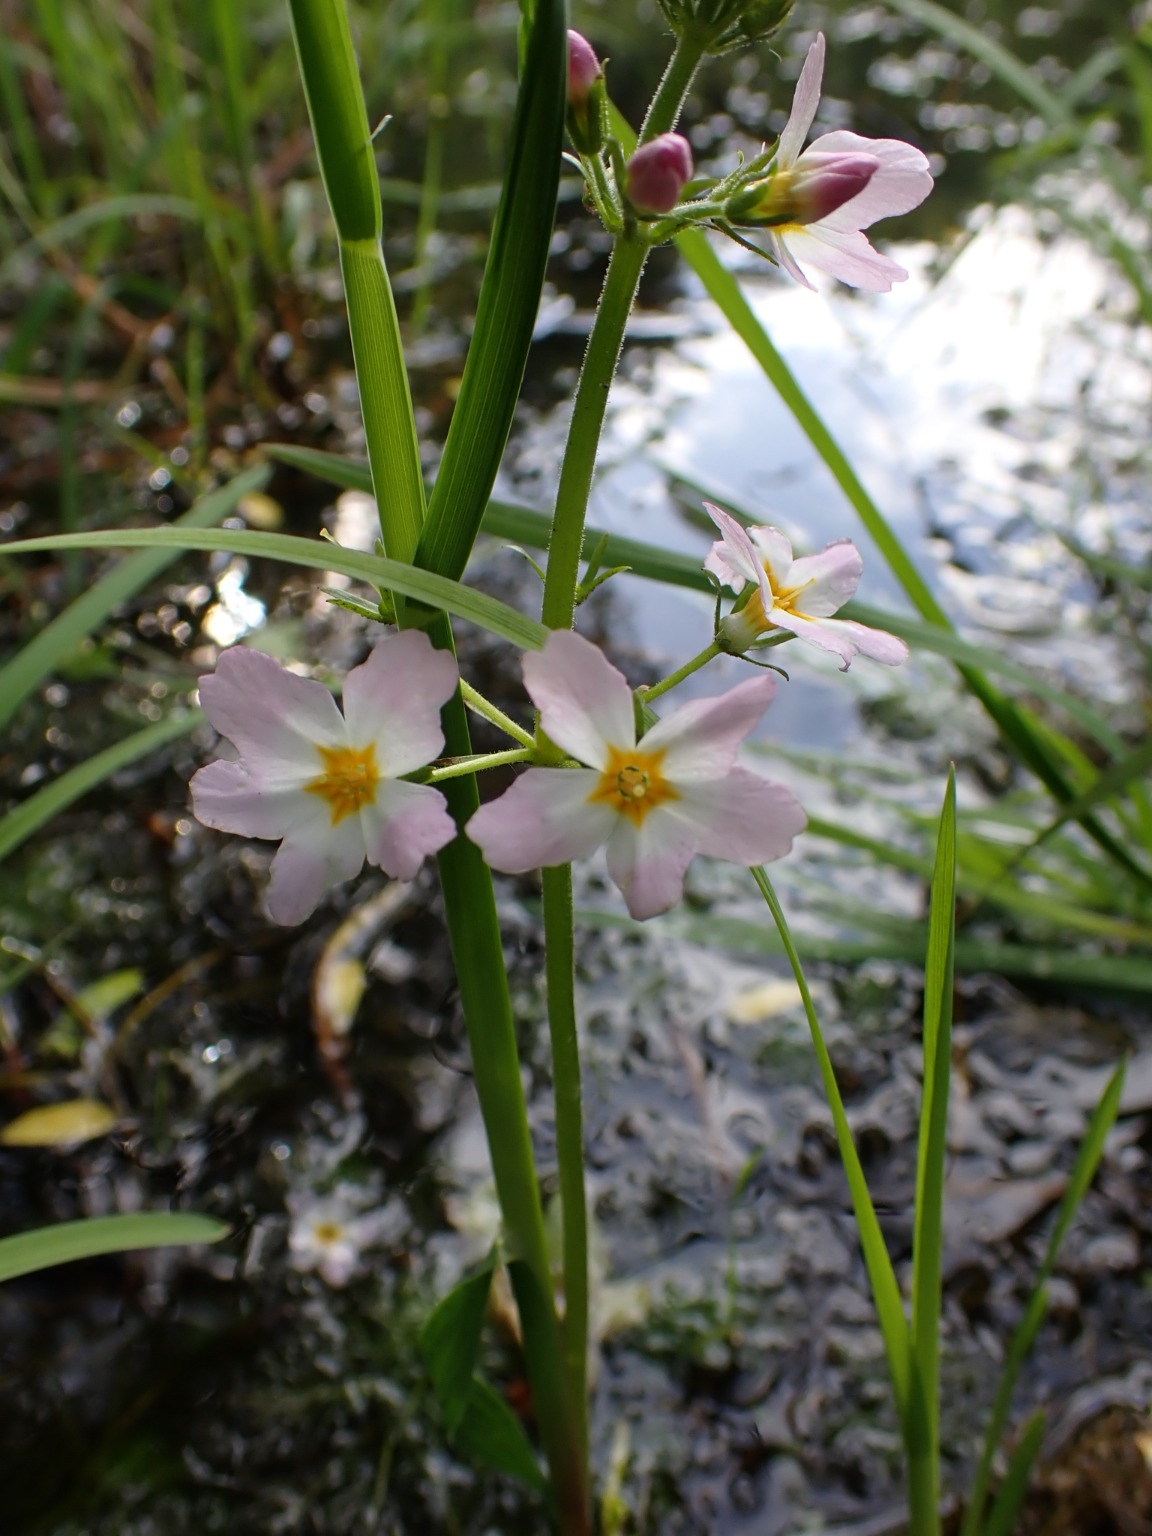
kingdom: Plantae
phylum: Tracheophyta
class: Magnoliopsida
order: Ericales
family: Primulaceae
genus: Hottonia
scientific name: Hottonia palustris
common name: Vandrøllike
